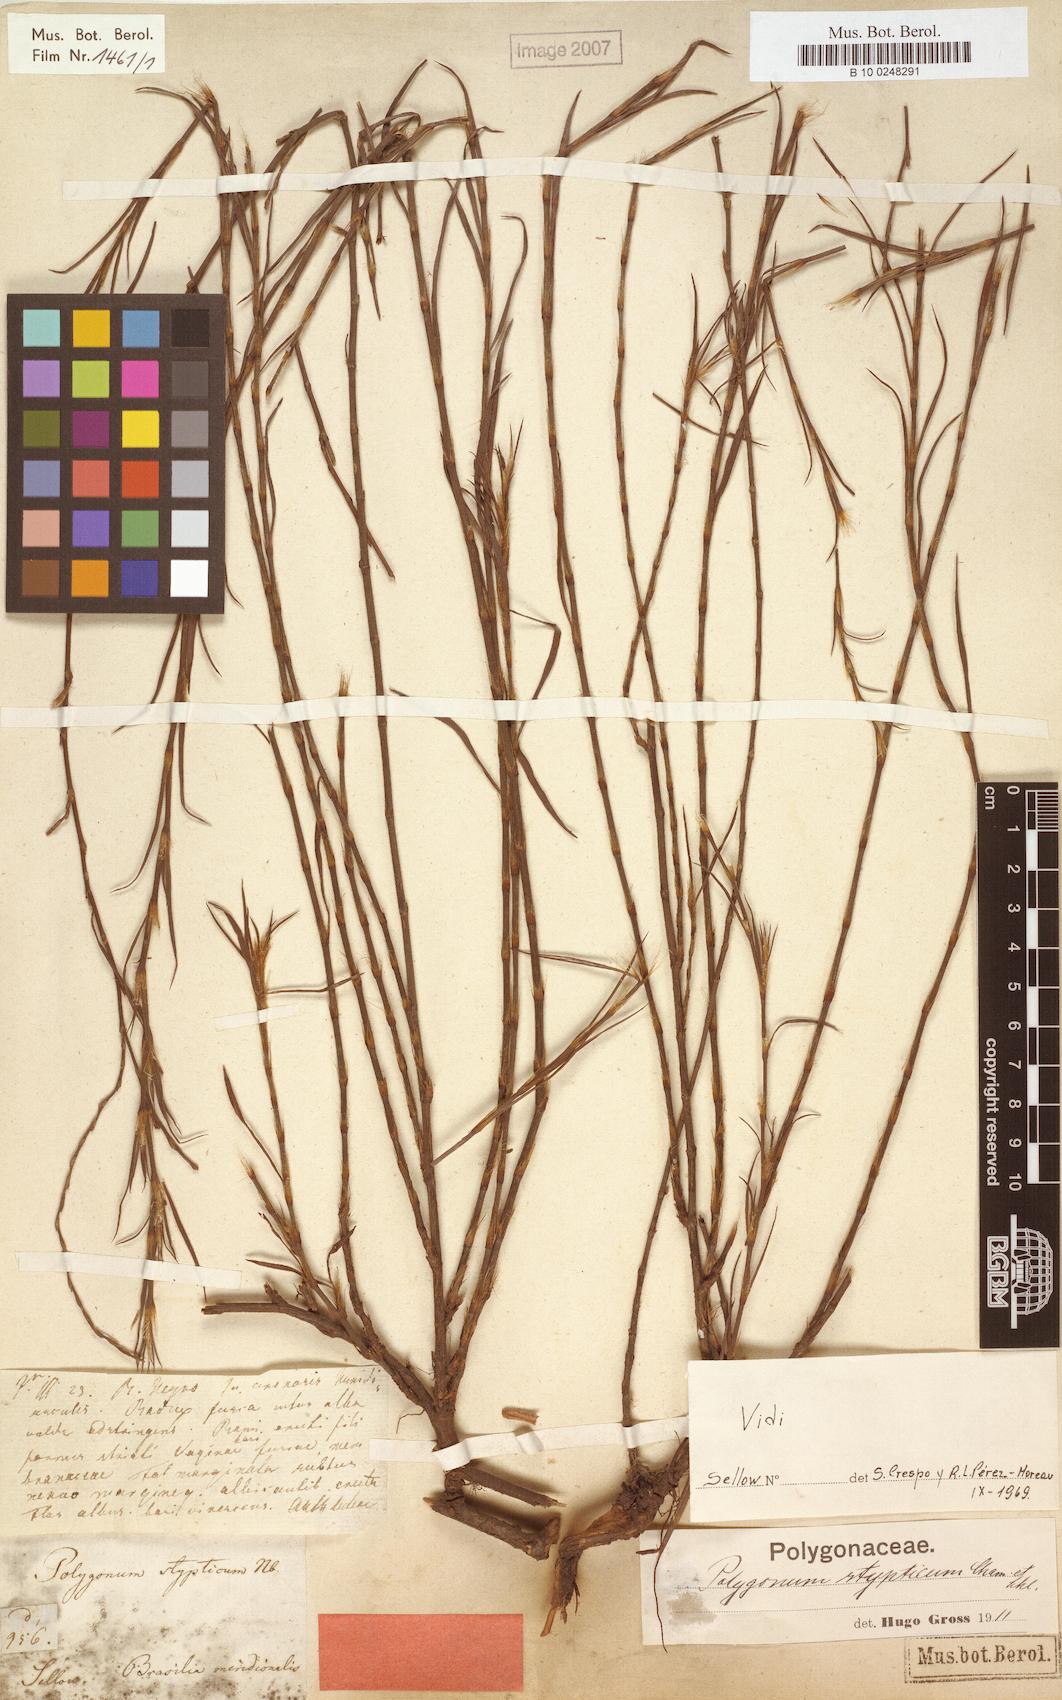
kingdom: Plantae
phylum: Tracheophyta
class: Magnoliopsida
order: Caryophyllales
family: Polygonaceae
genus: Polygonum
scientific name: Polygonum stypticum
